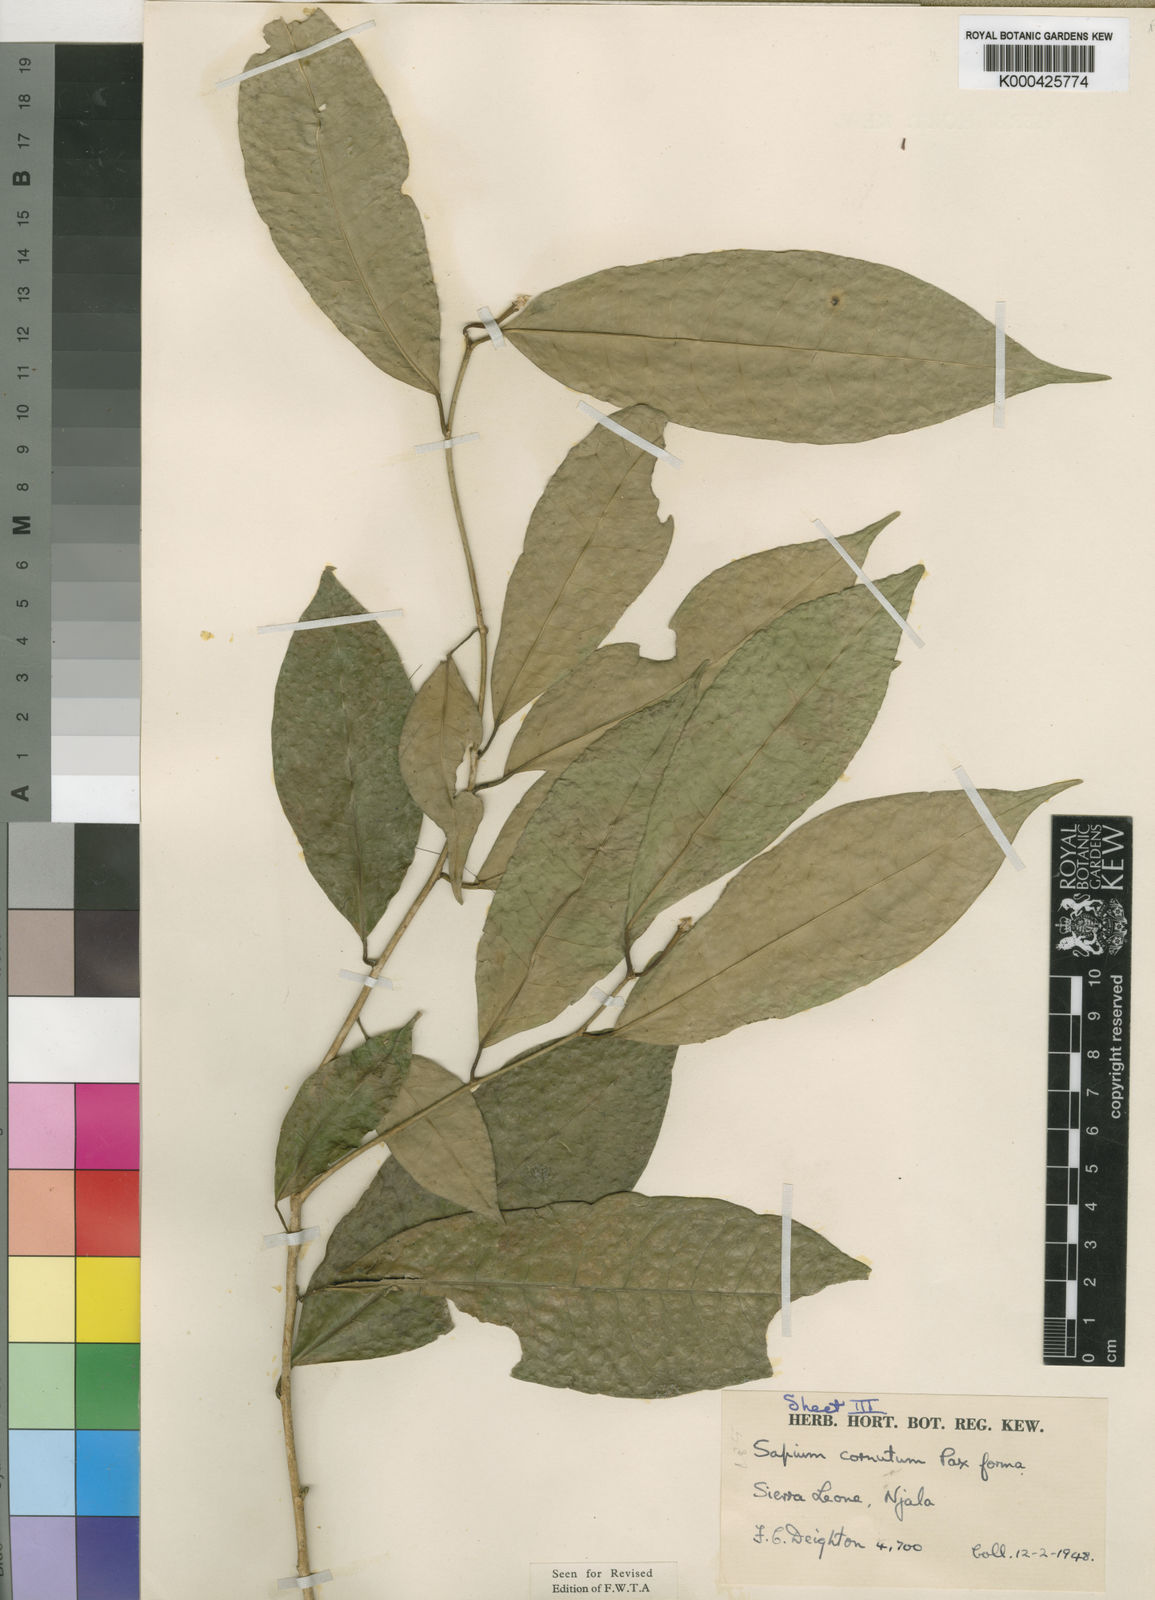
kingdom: Plantae
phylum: Tracheophyta
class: Magnoliopsida
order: Malpighiales
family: Euphorbiaceae
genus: Sapium
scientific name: Sapium
